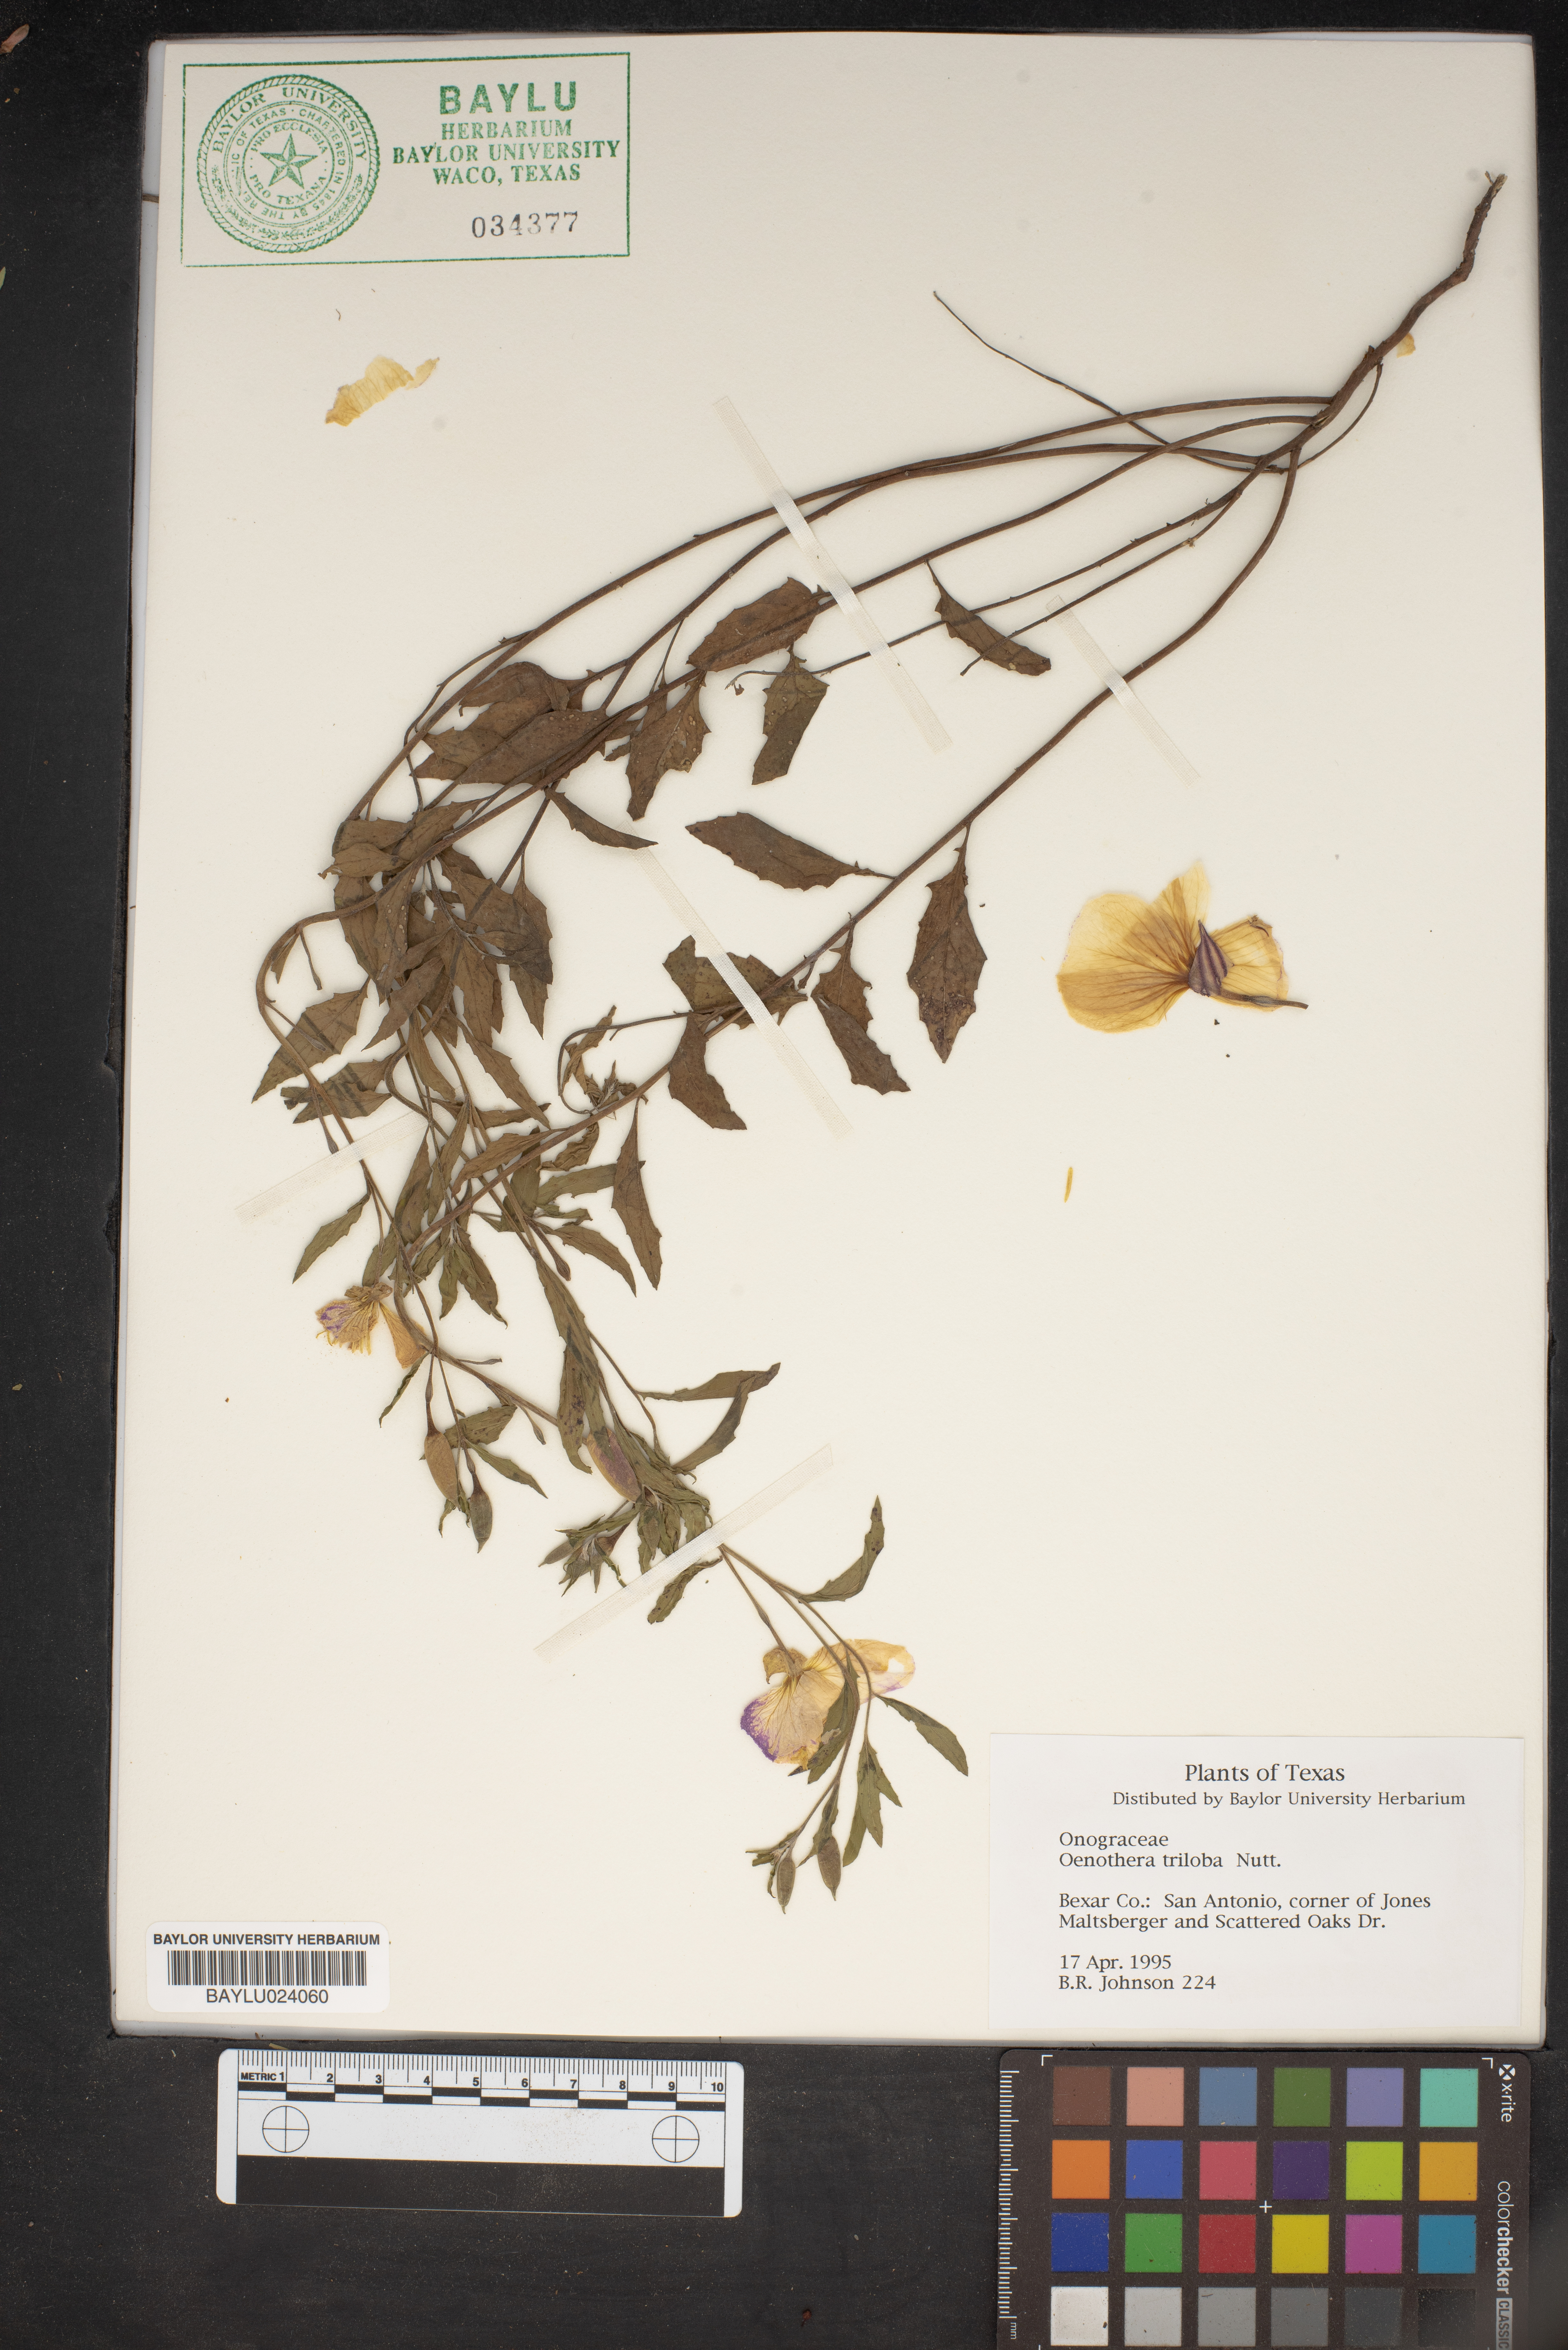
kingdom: Plantae
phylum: Tracheophyta
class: Magnoliopsida
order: Myrtales
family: Onagraceae
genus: Oenothera
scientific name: Oenothera triloba
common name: Sessile evening-primrose
